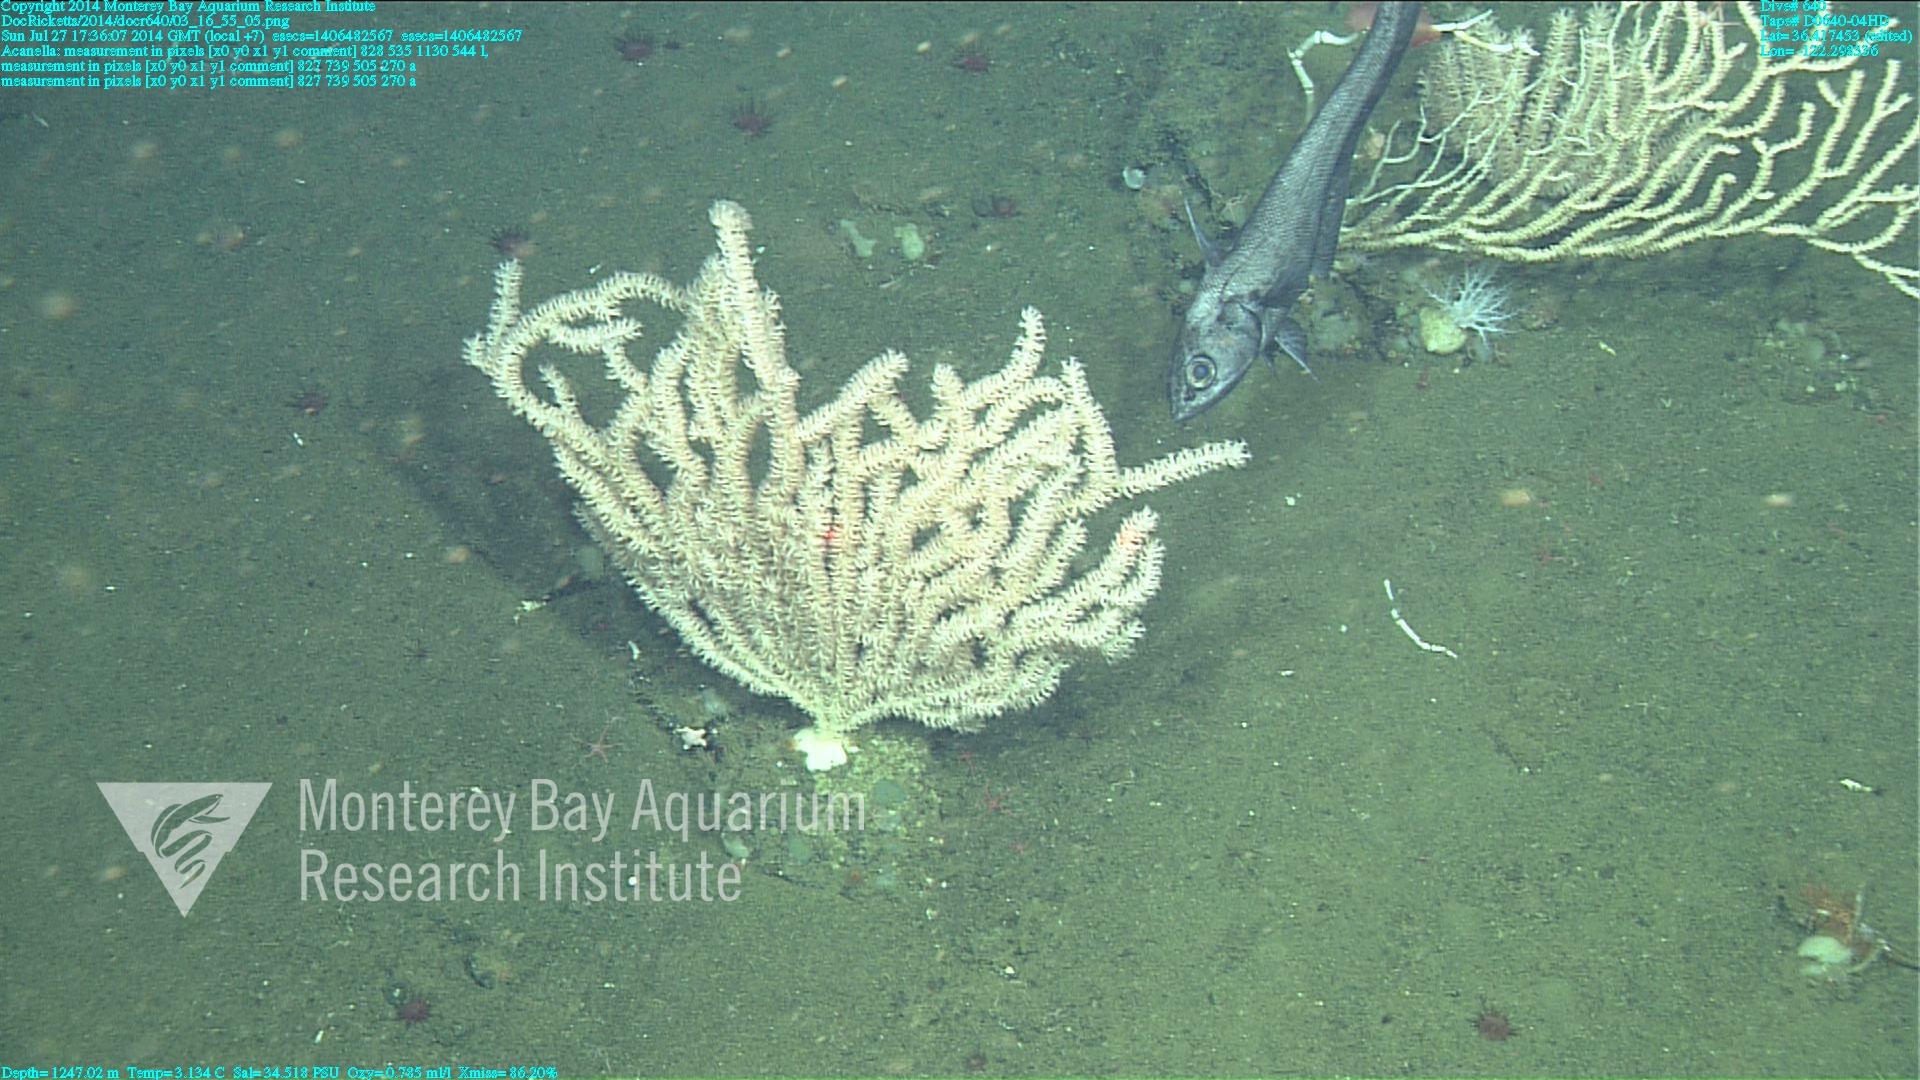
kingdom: Animalia
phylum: Cnidaria
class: Anthozoa
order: Scleralcyonacea
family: Keratoisididae
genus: Acanella
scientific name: Acanella
